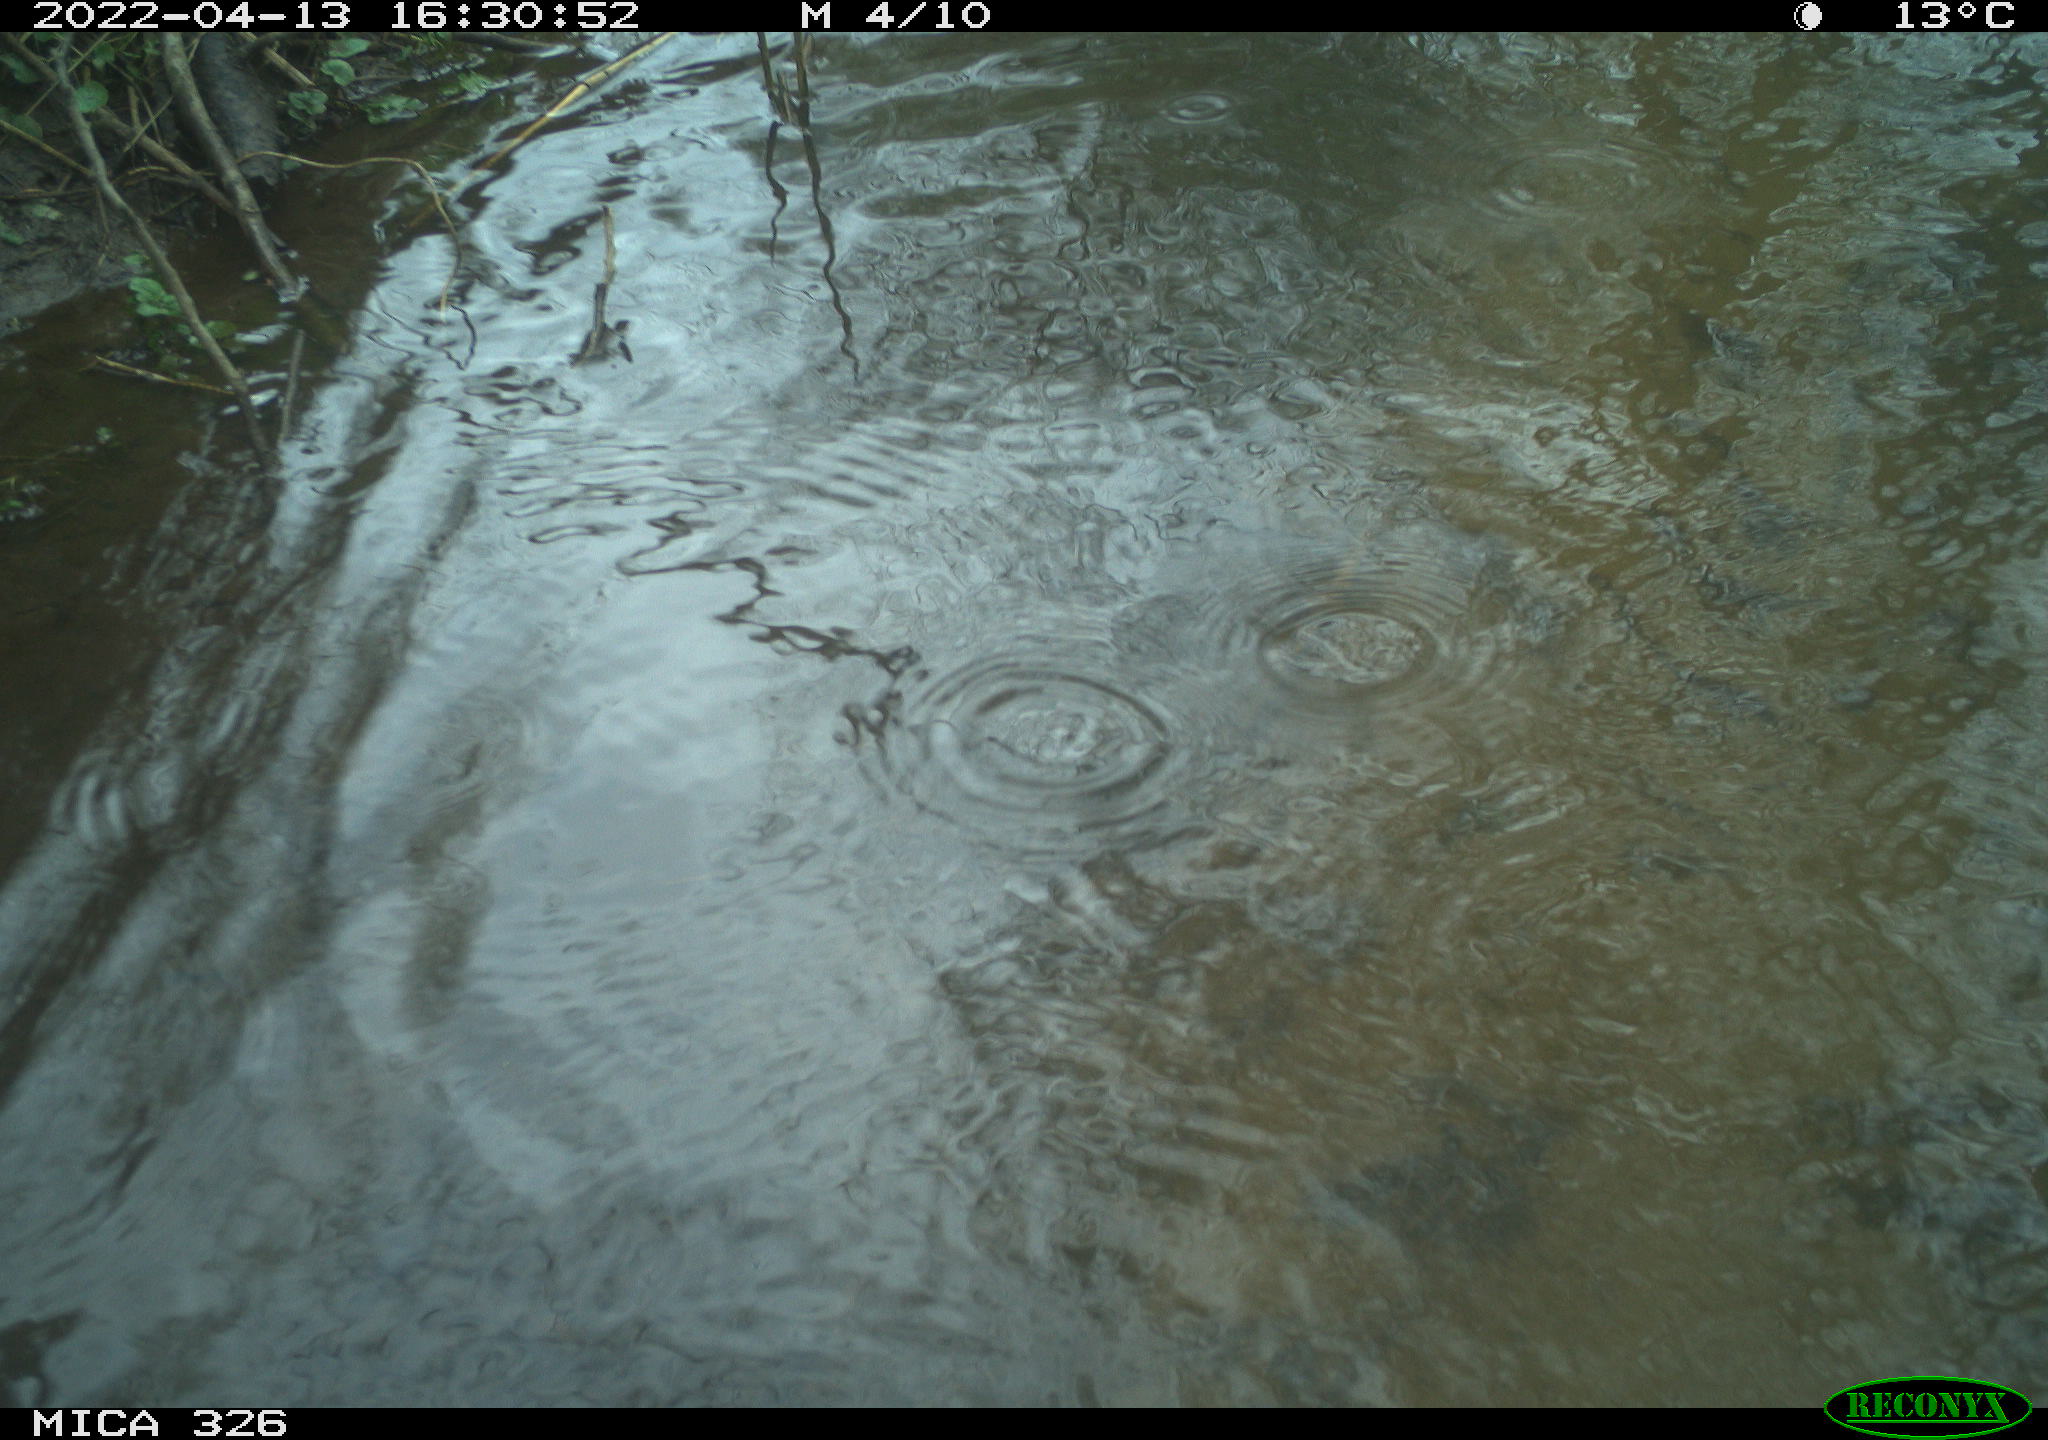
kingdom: Animalia
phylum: Chordata
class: Mammalia
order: Rodentia
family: Cricetidae
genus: Ondatra
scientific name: Ondatra zibethicus
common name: Muskrat
